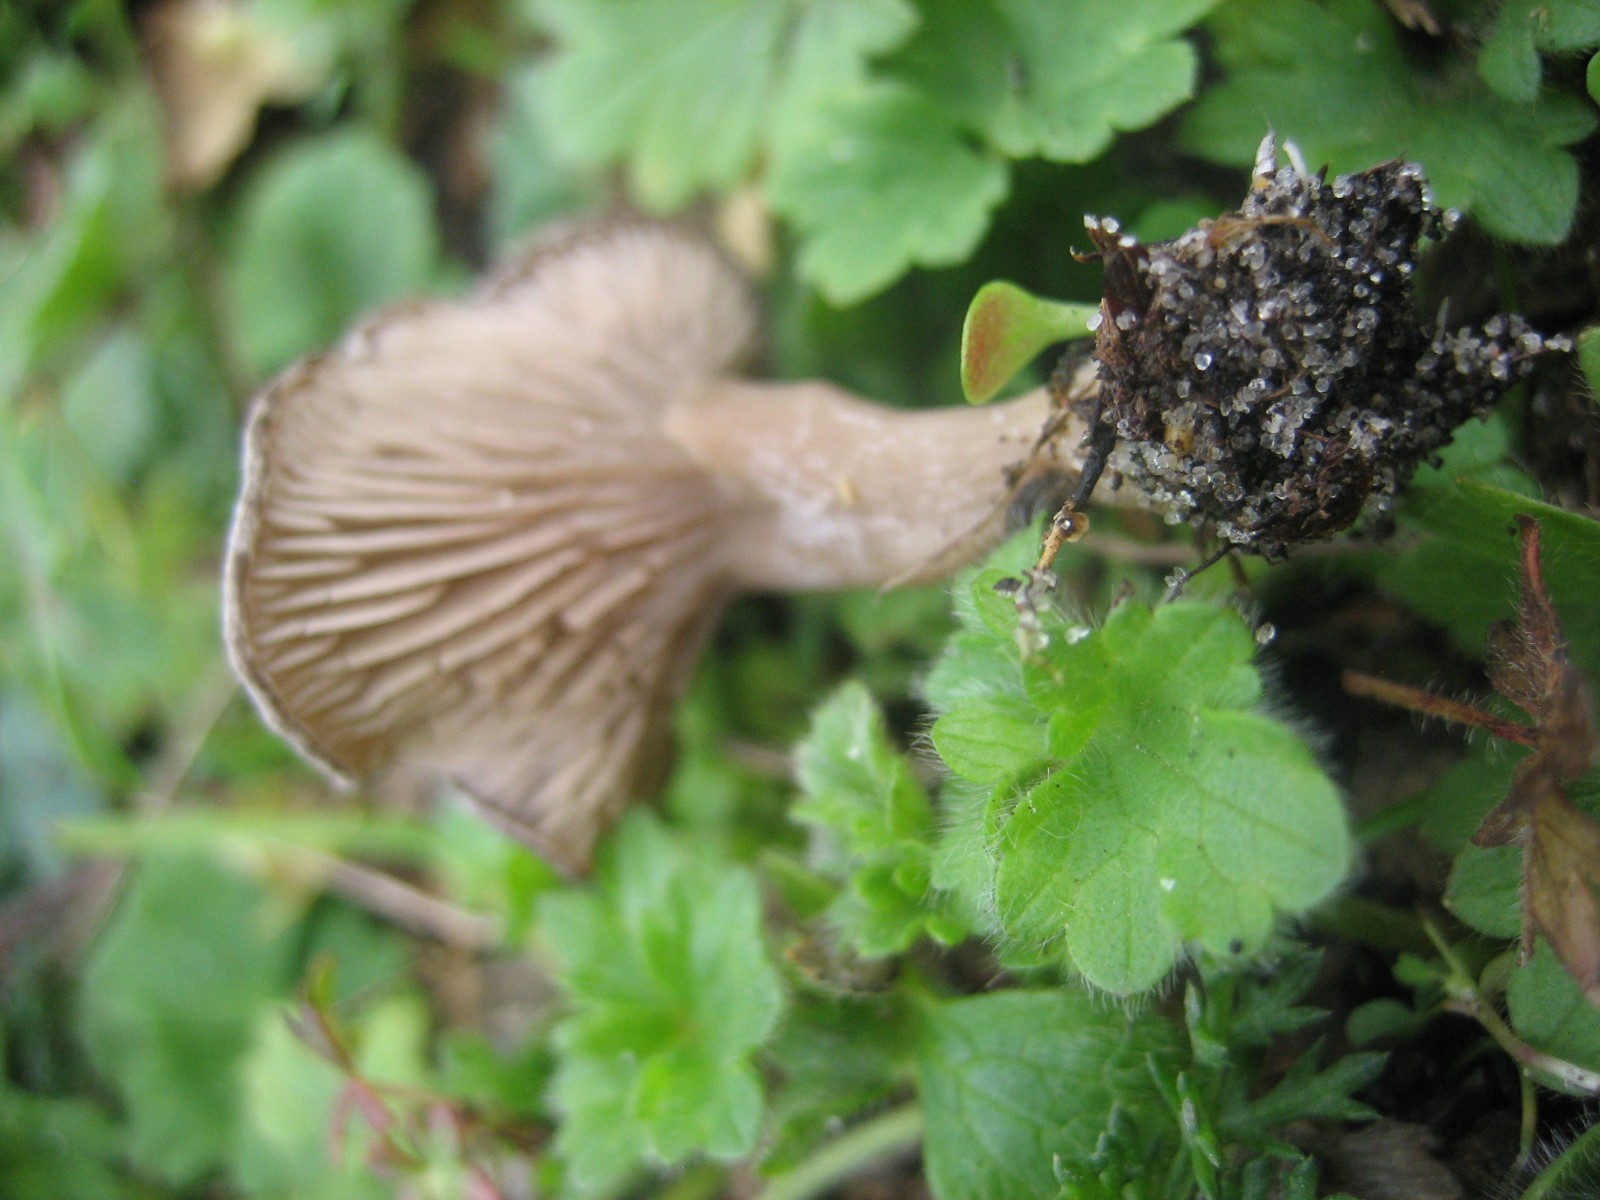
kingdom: Fungi
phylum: Basidiomycota
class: Agaricomycetes
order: Agaricales
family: Entolomataceae
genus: Entoloma
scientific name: Entoloma undatum
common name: bæltet rødblad
